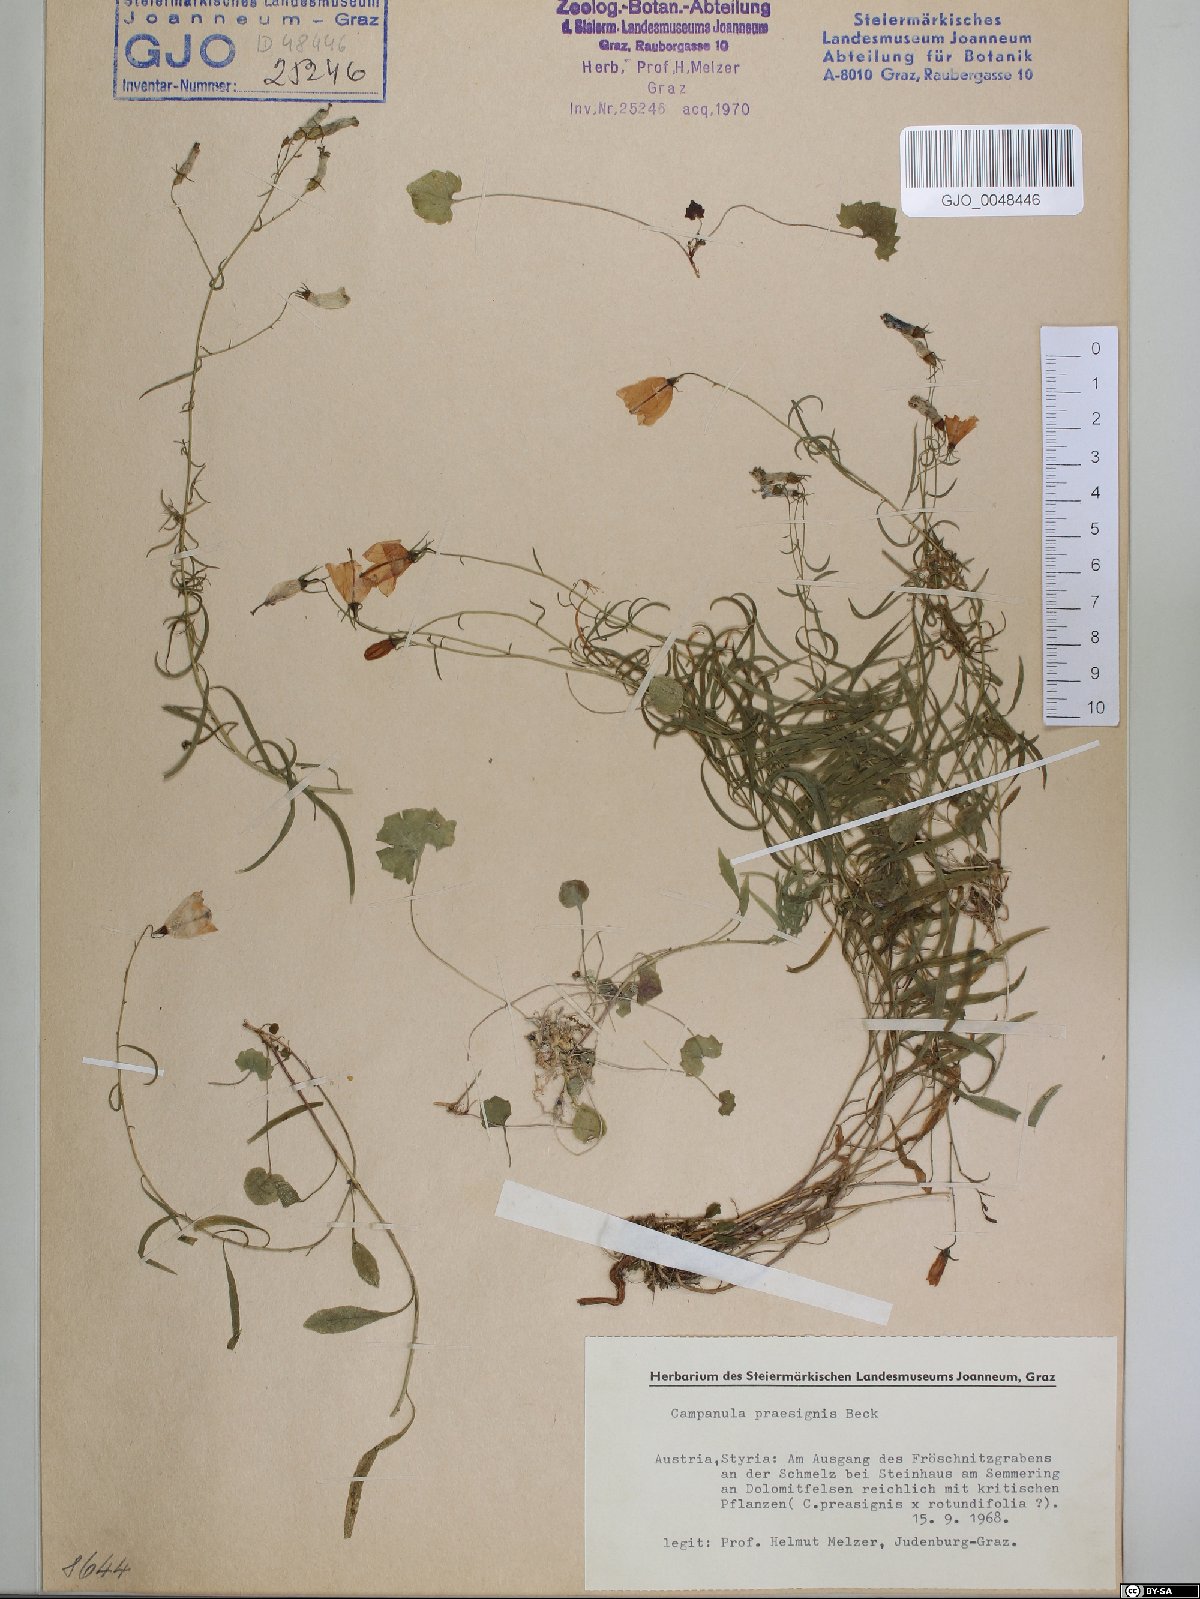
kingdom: Plantae
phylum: Tracheophyta
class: Magnoliopsida
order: Asterales
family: Campanulaceae
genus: Campanula
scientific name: Campanula praesignis
